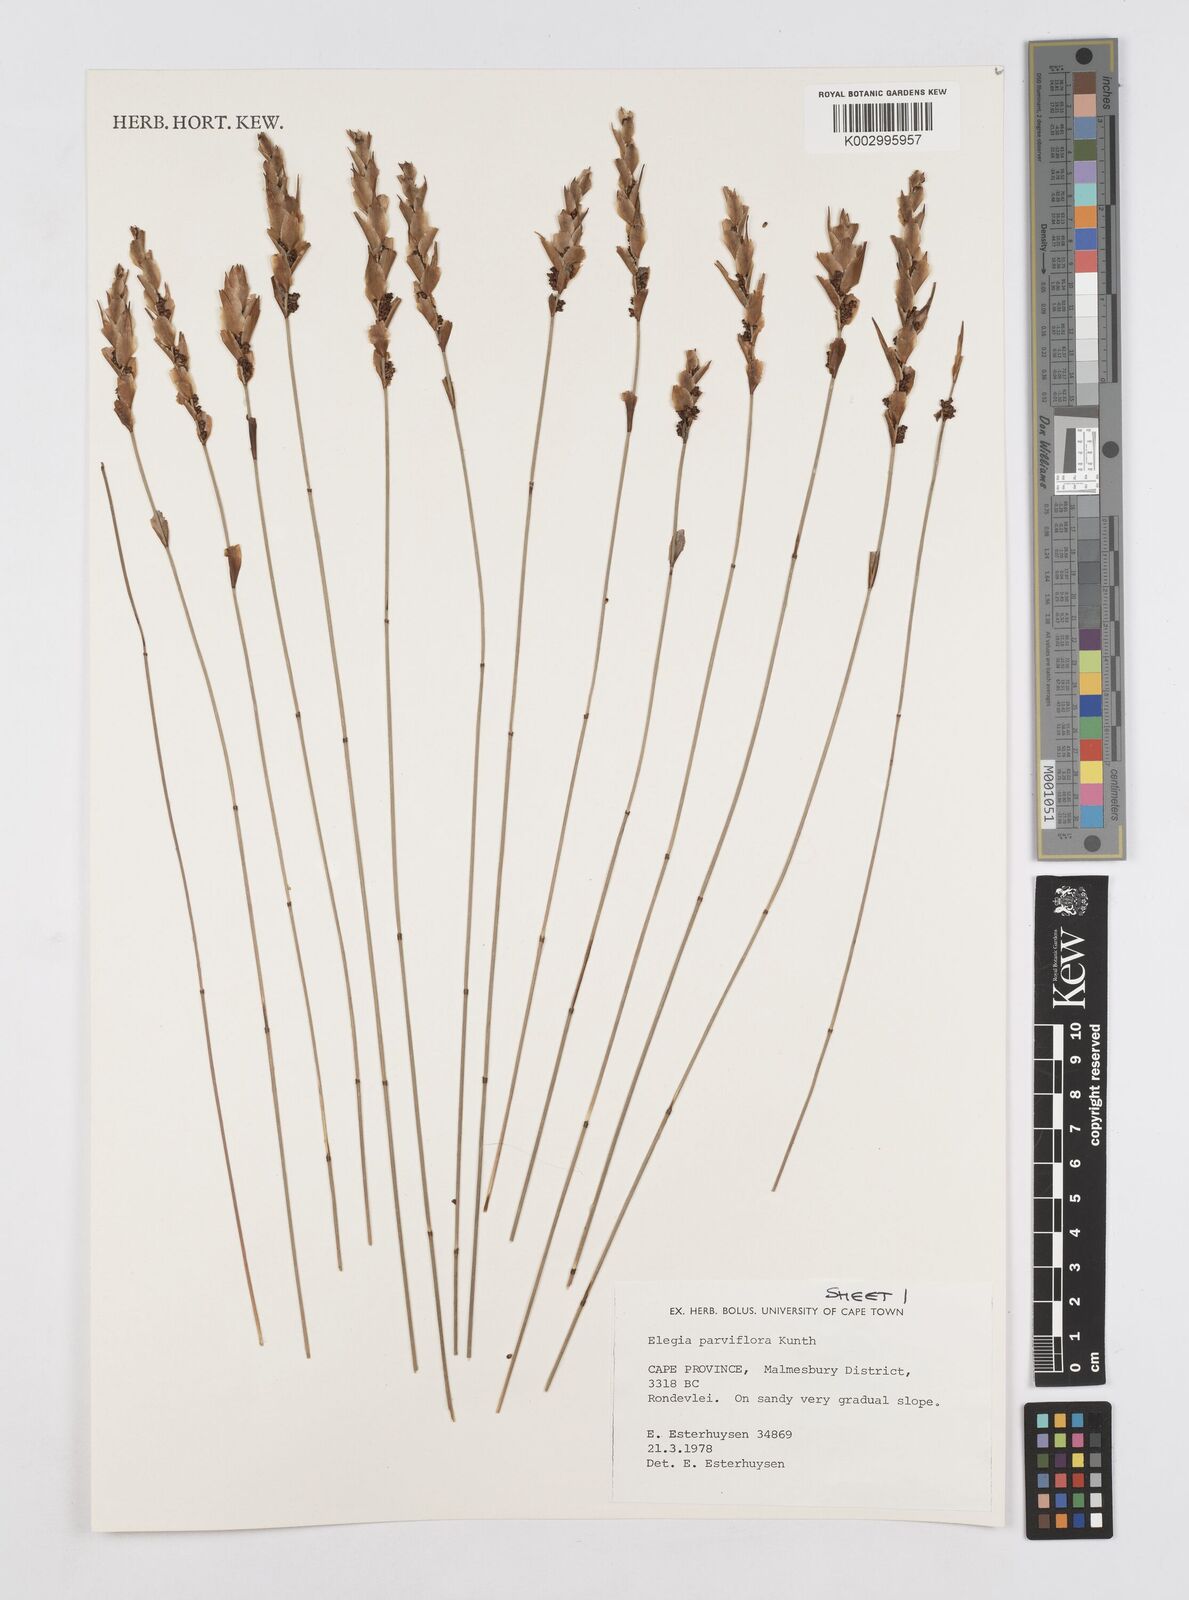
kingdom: Plantae
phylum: Tracheophyta
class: Liliopsida
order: Poales
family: Restionaceae
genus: Cannomois
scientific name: Cannomois parviflora
